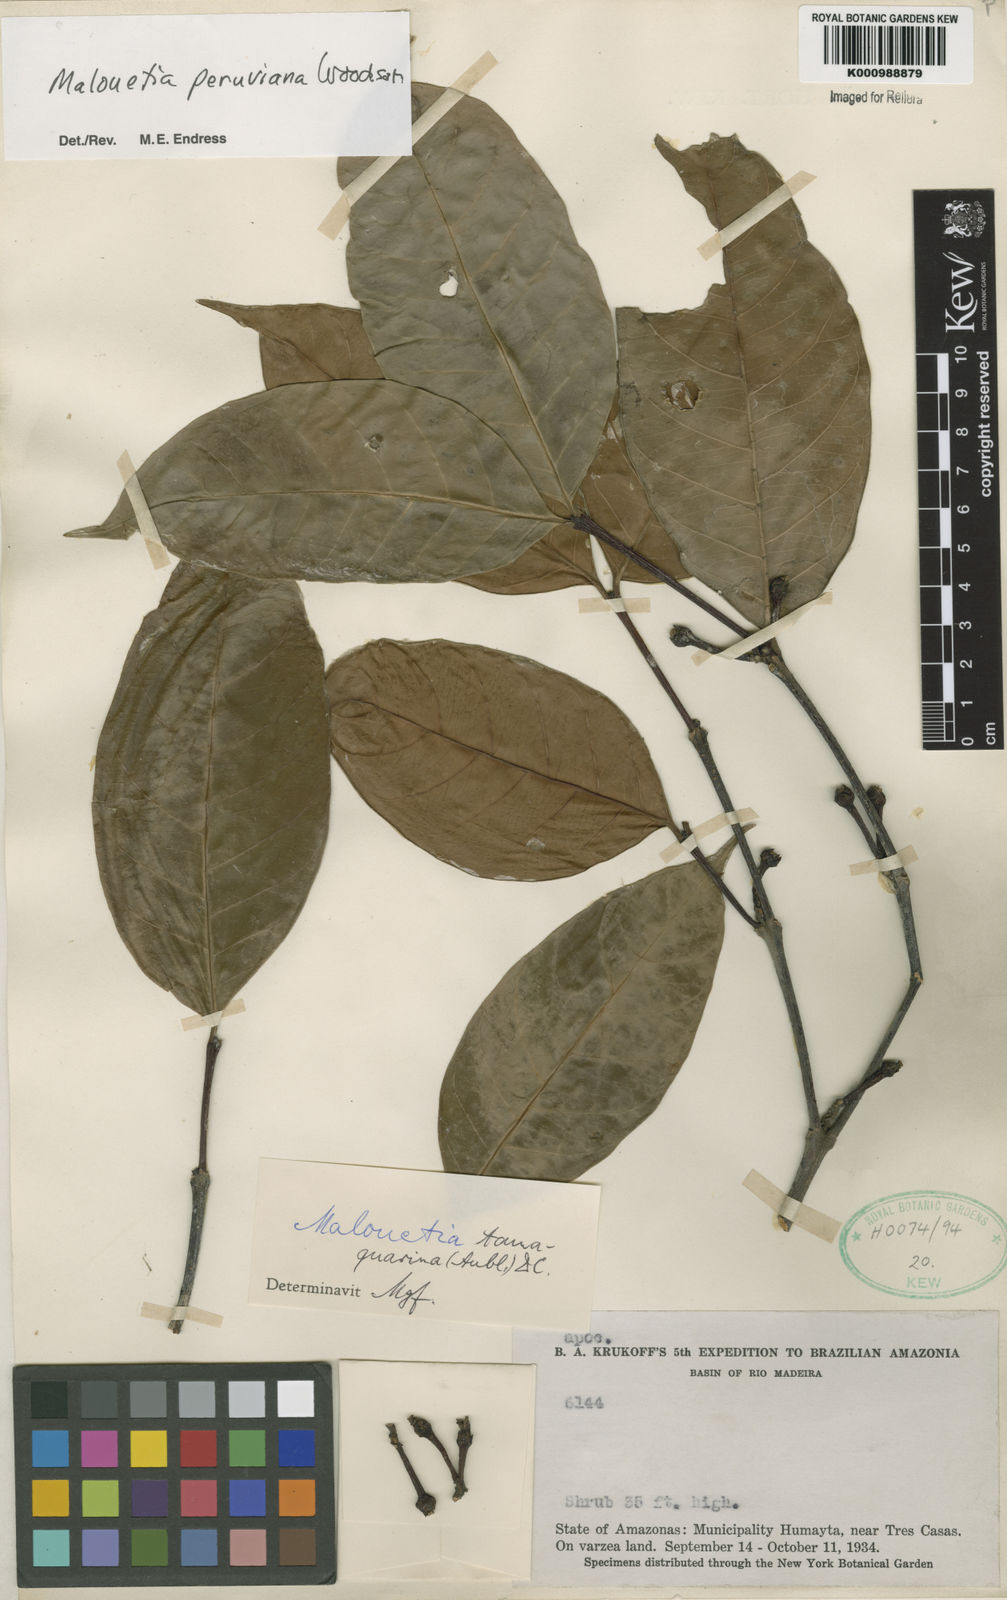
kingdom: Plantae
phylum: Tracheophyta
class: Magnoliopsida
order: Gentianales
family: Apocynaceae
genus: Malouetia
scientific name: Malouetia tamaquarina
